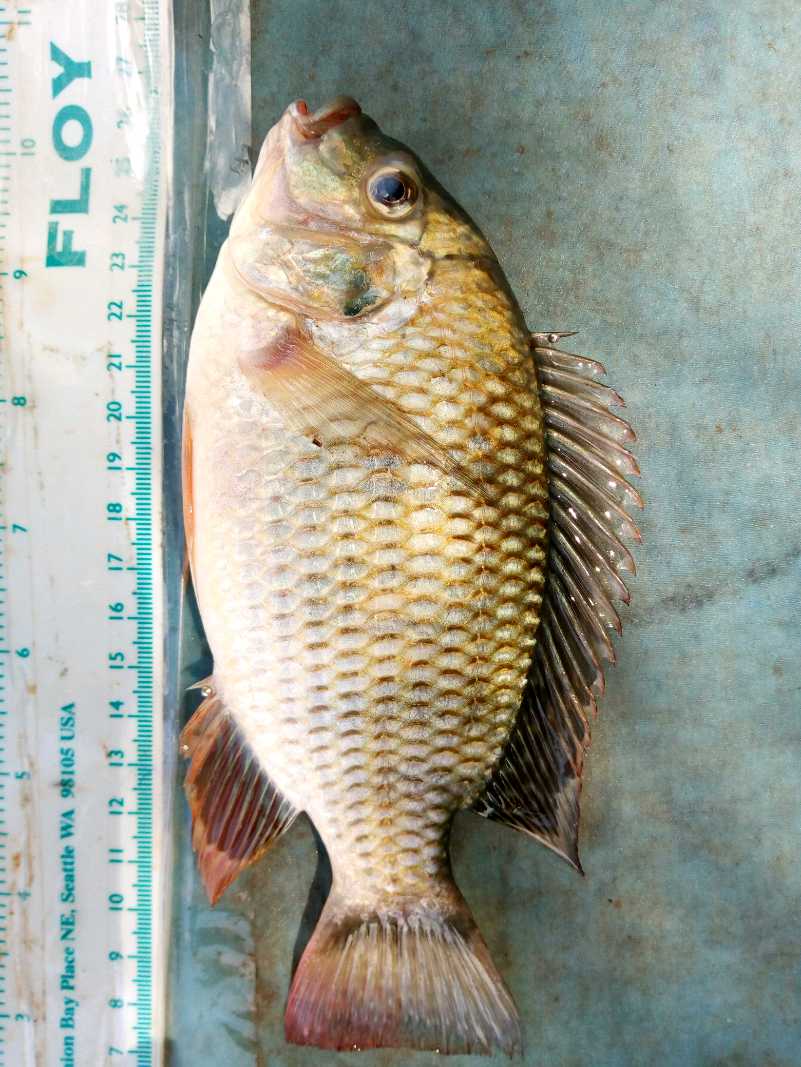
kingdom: Animalia
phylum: Chordata
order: Perciformes
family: Cichlidae
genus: Coptodon
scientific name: Coptodon rendalli
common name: Redbreast tilapia
